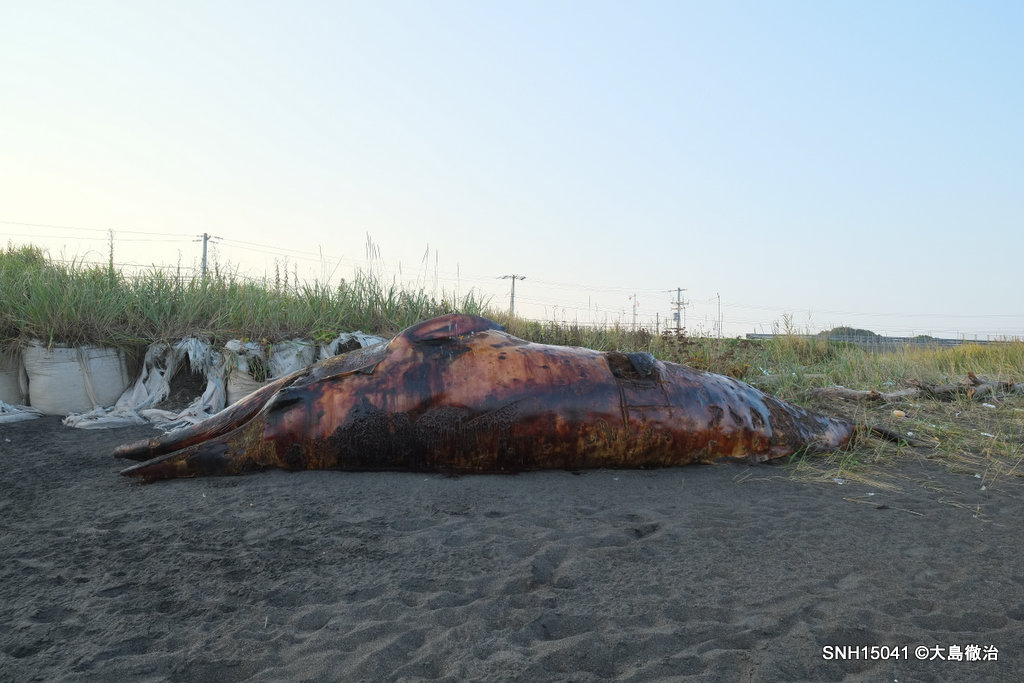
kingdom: Animalia
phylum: Chordata
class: Mammalia
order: Cetacea
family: Balaenopteridae
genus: Balaenoptera
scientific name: Balaenoptera acutorostrata
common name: Minke whale
